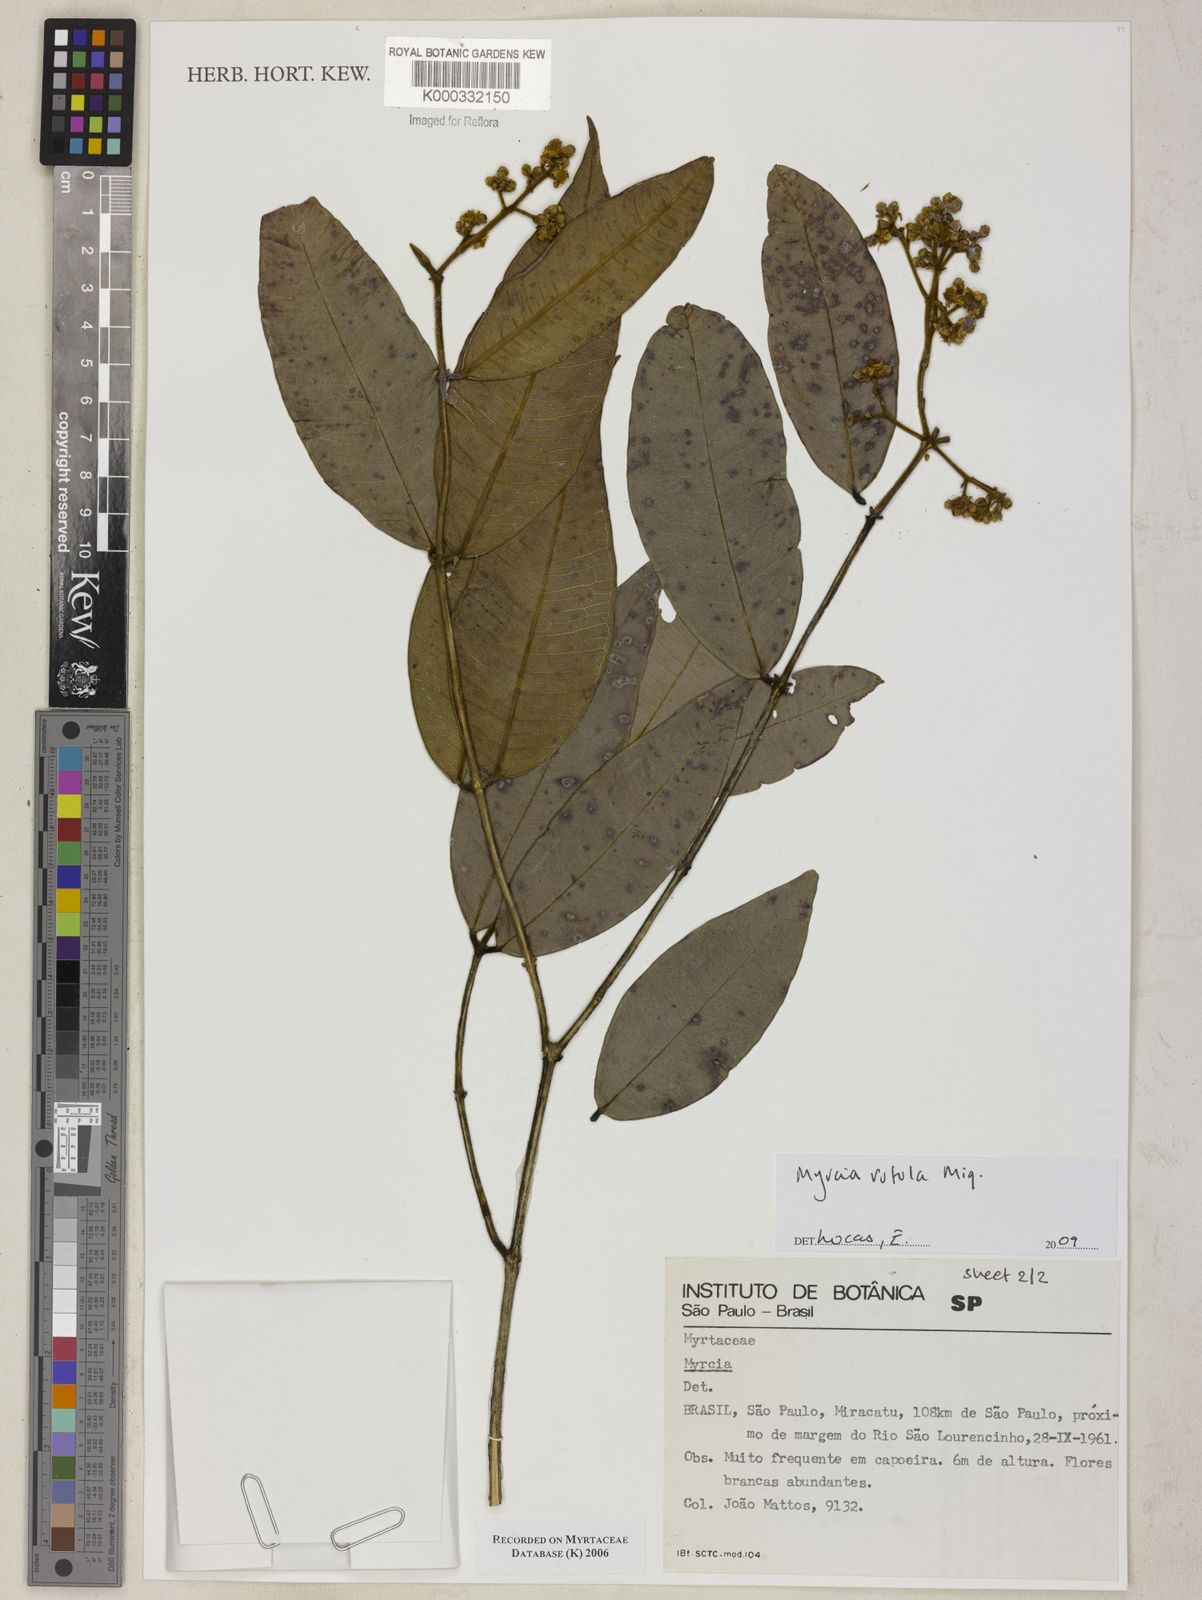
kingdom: Plantae
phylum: Tracheophyta
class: Magnoliopsida
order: Myrtales
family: Myrtaceae
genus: Myrcia
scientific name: Myrcia
